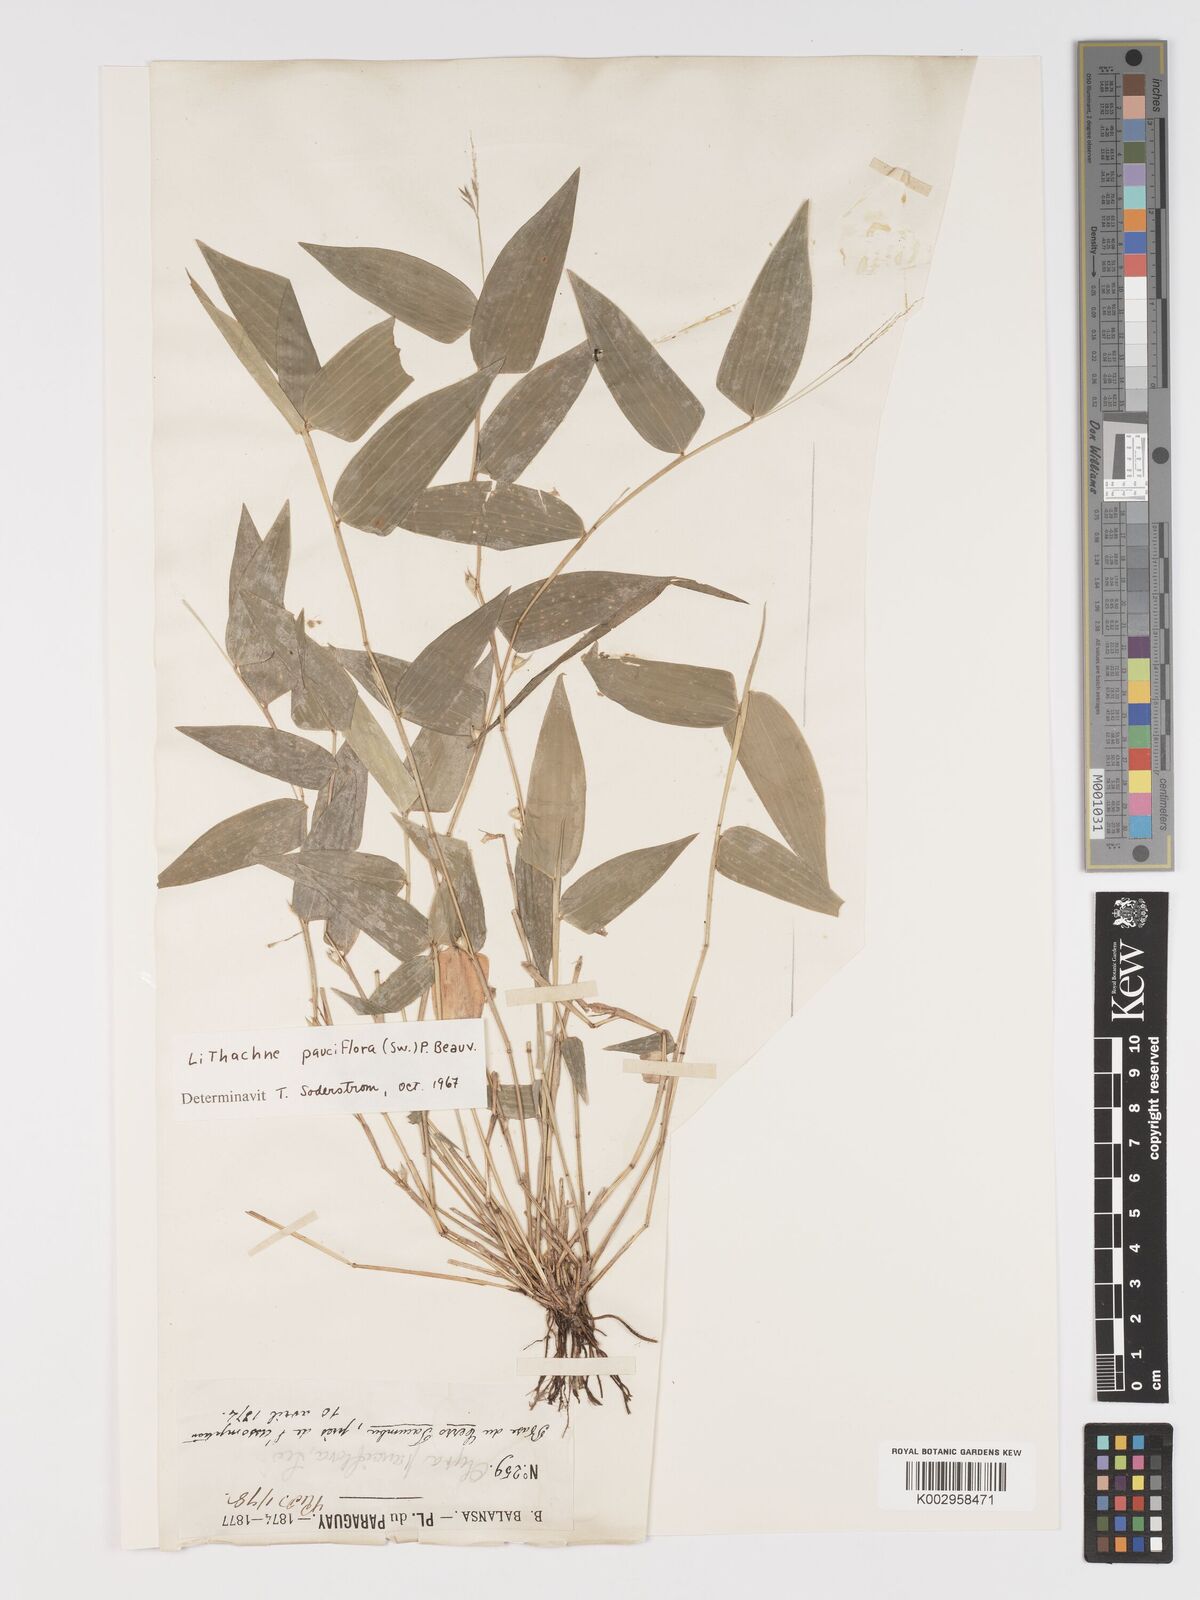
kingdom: Plantae
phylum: Tracheophyta
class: Liliopsida
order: Poales
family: Poaceae
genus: Lithachne
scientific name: Lithachne pauciflora
